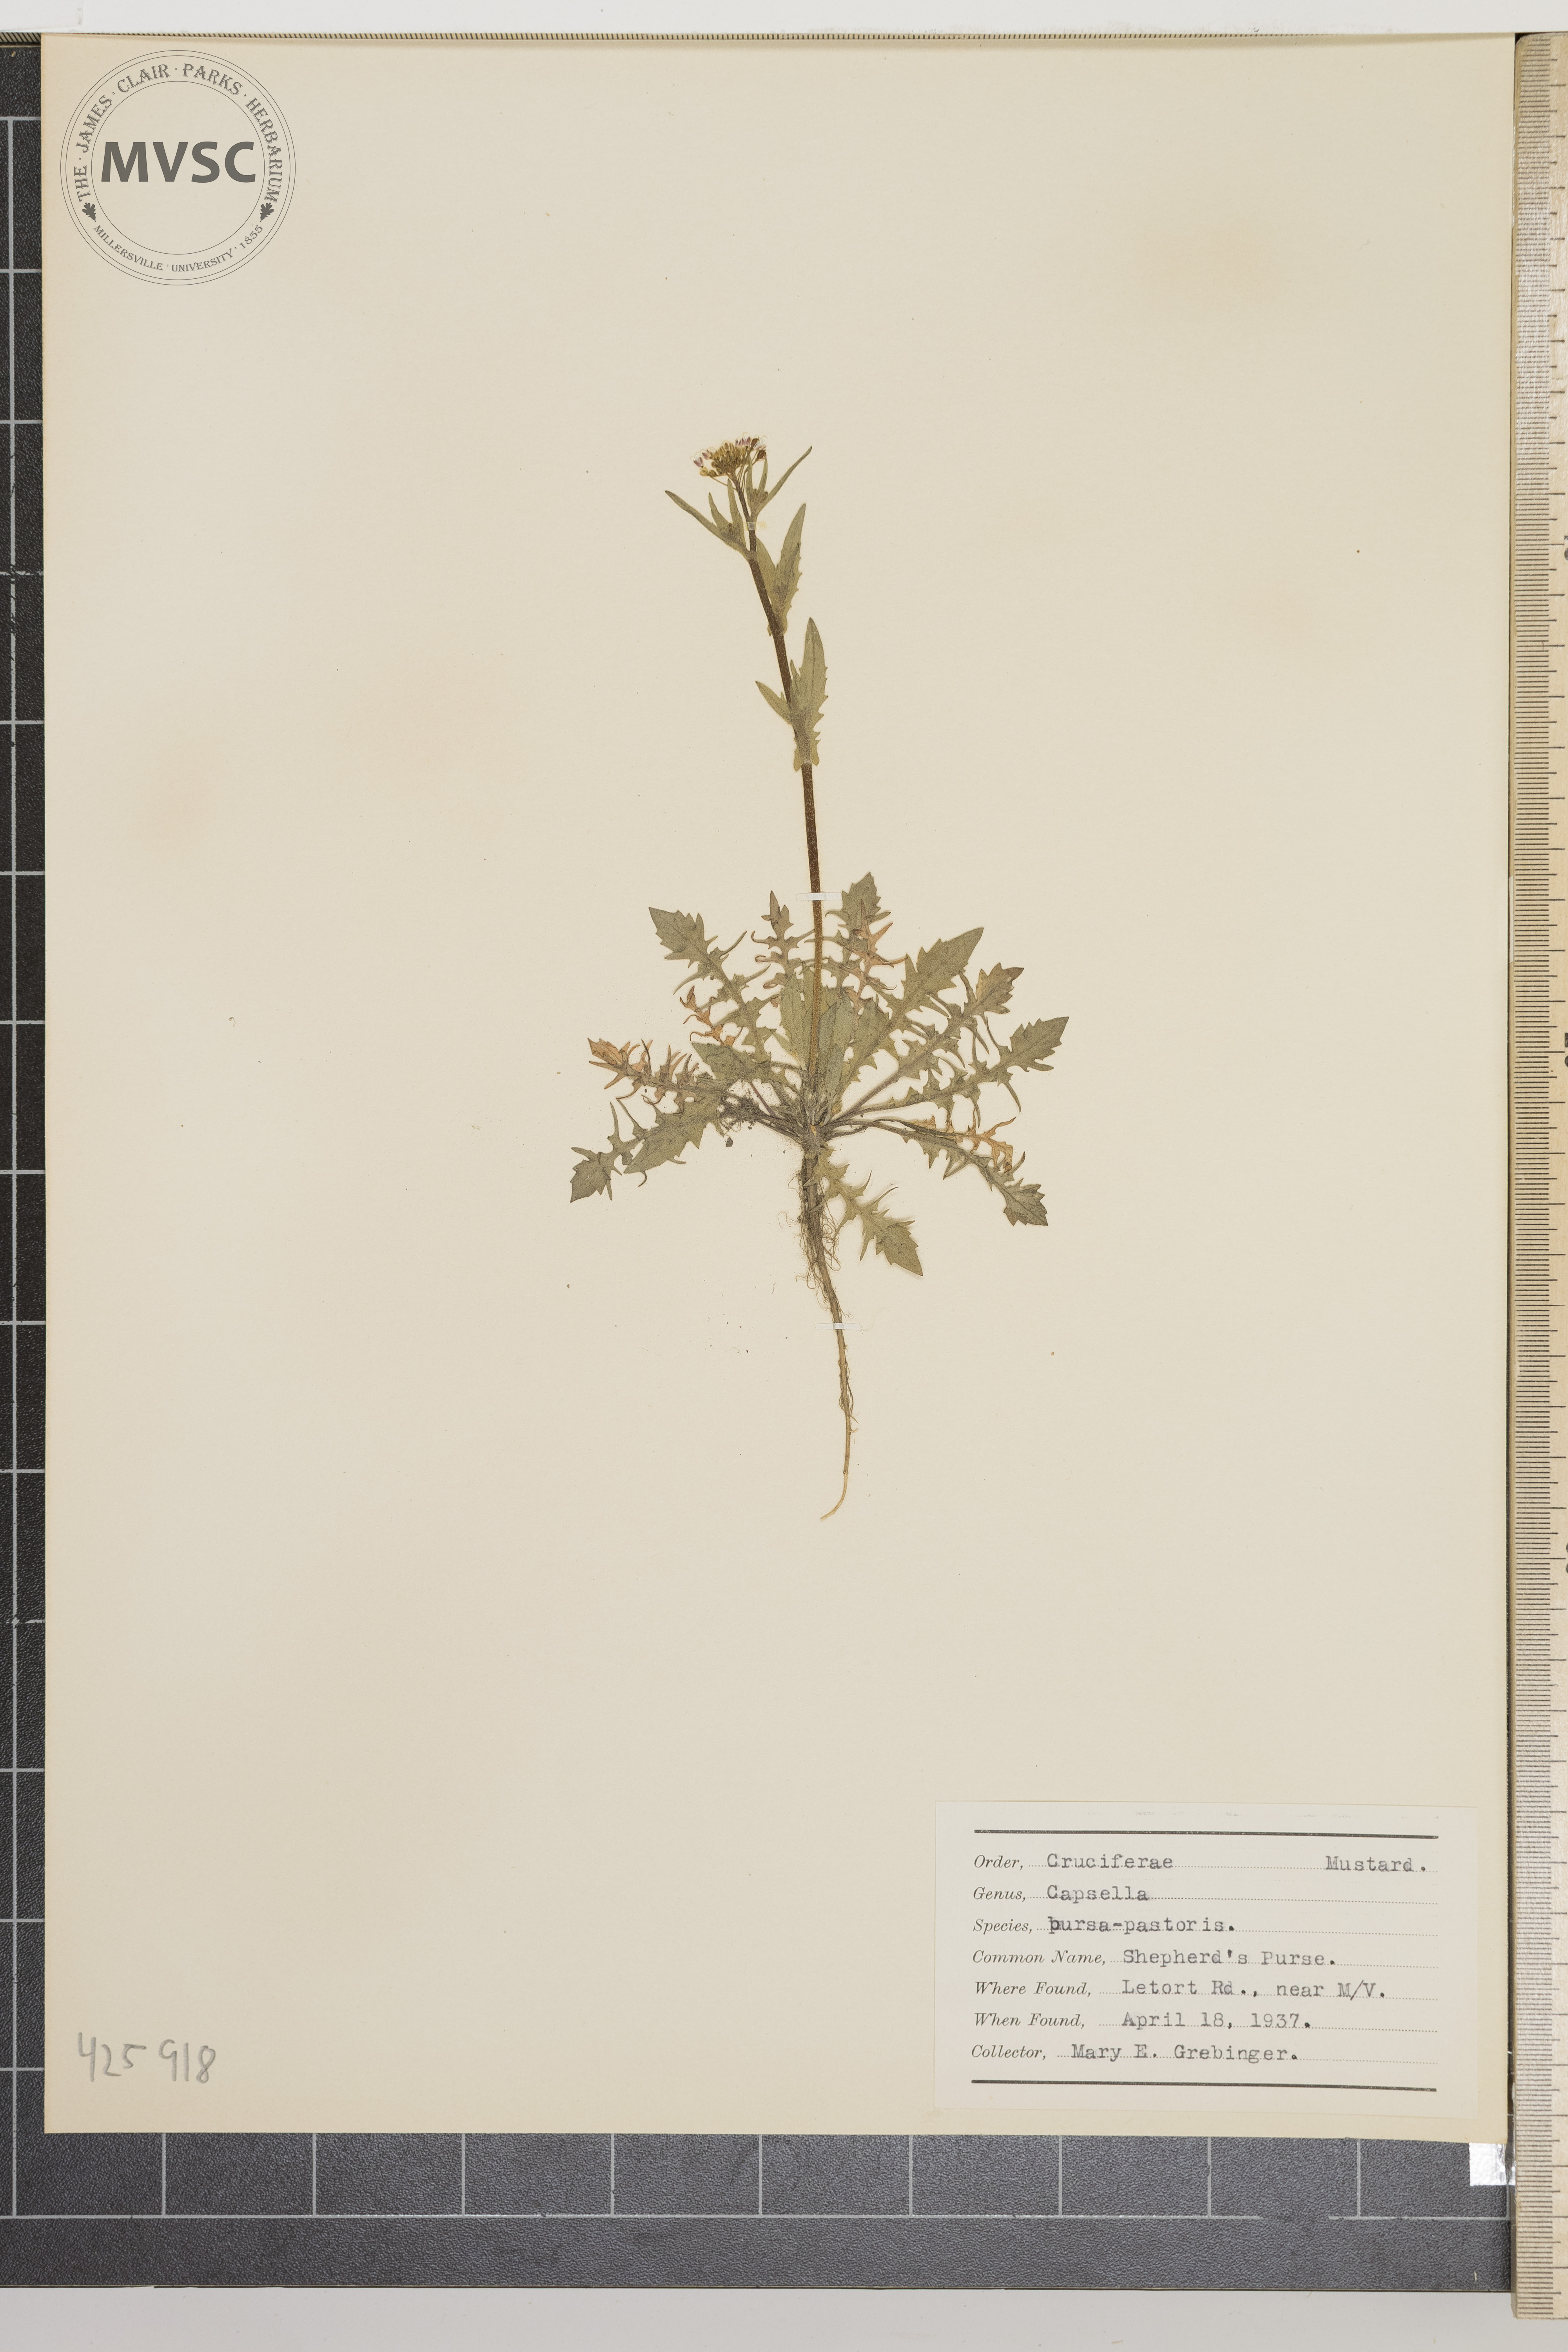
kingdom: Plantae
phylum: Tracheophyta
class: Magnoliopsida
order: Brassicales
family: Brassicaceae
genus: Capsella
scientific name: Capsella bursa-pastoris
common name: Shepherd's purse
